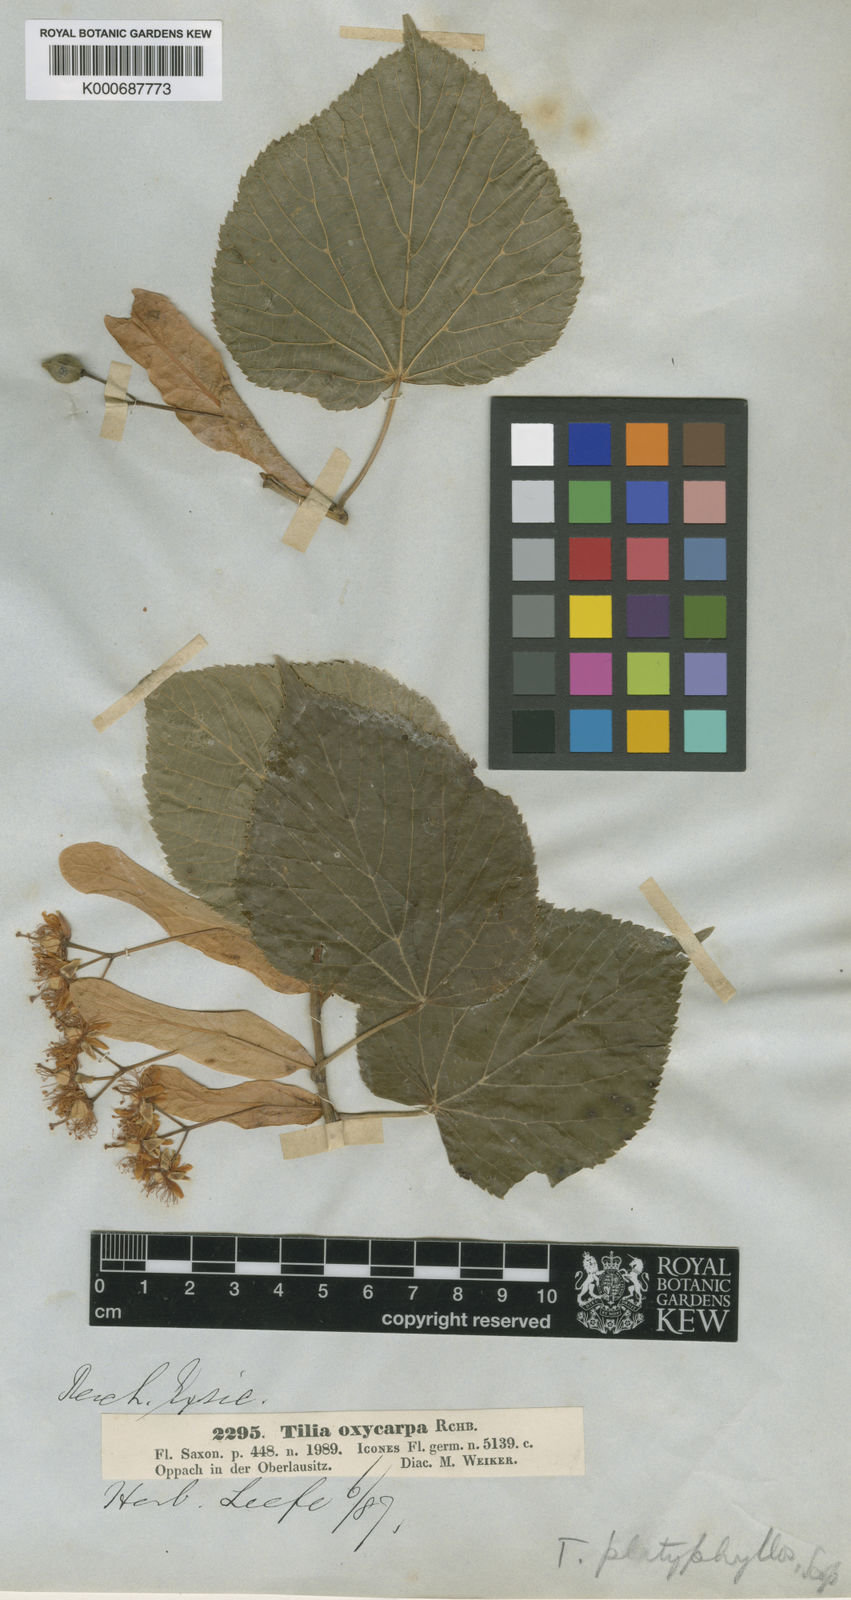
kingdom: Plantae
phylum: Tracheophyta
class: Magnoliopsida
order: Malvales
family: Malvaceae
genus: Tilia
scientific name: Tilia platyphyllos
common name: Large-leaved lime
